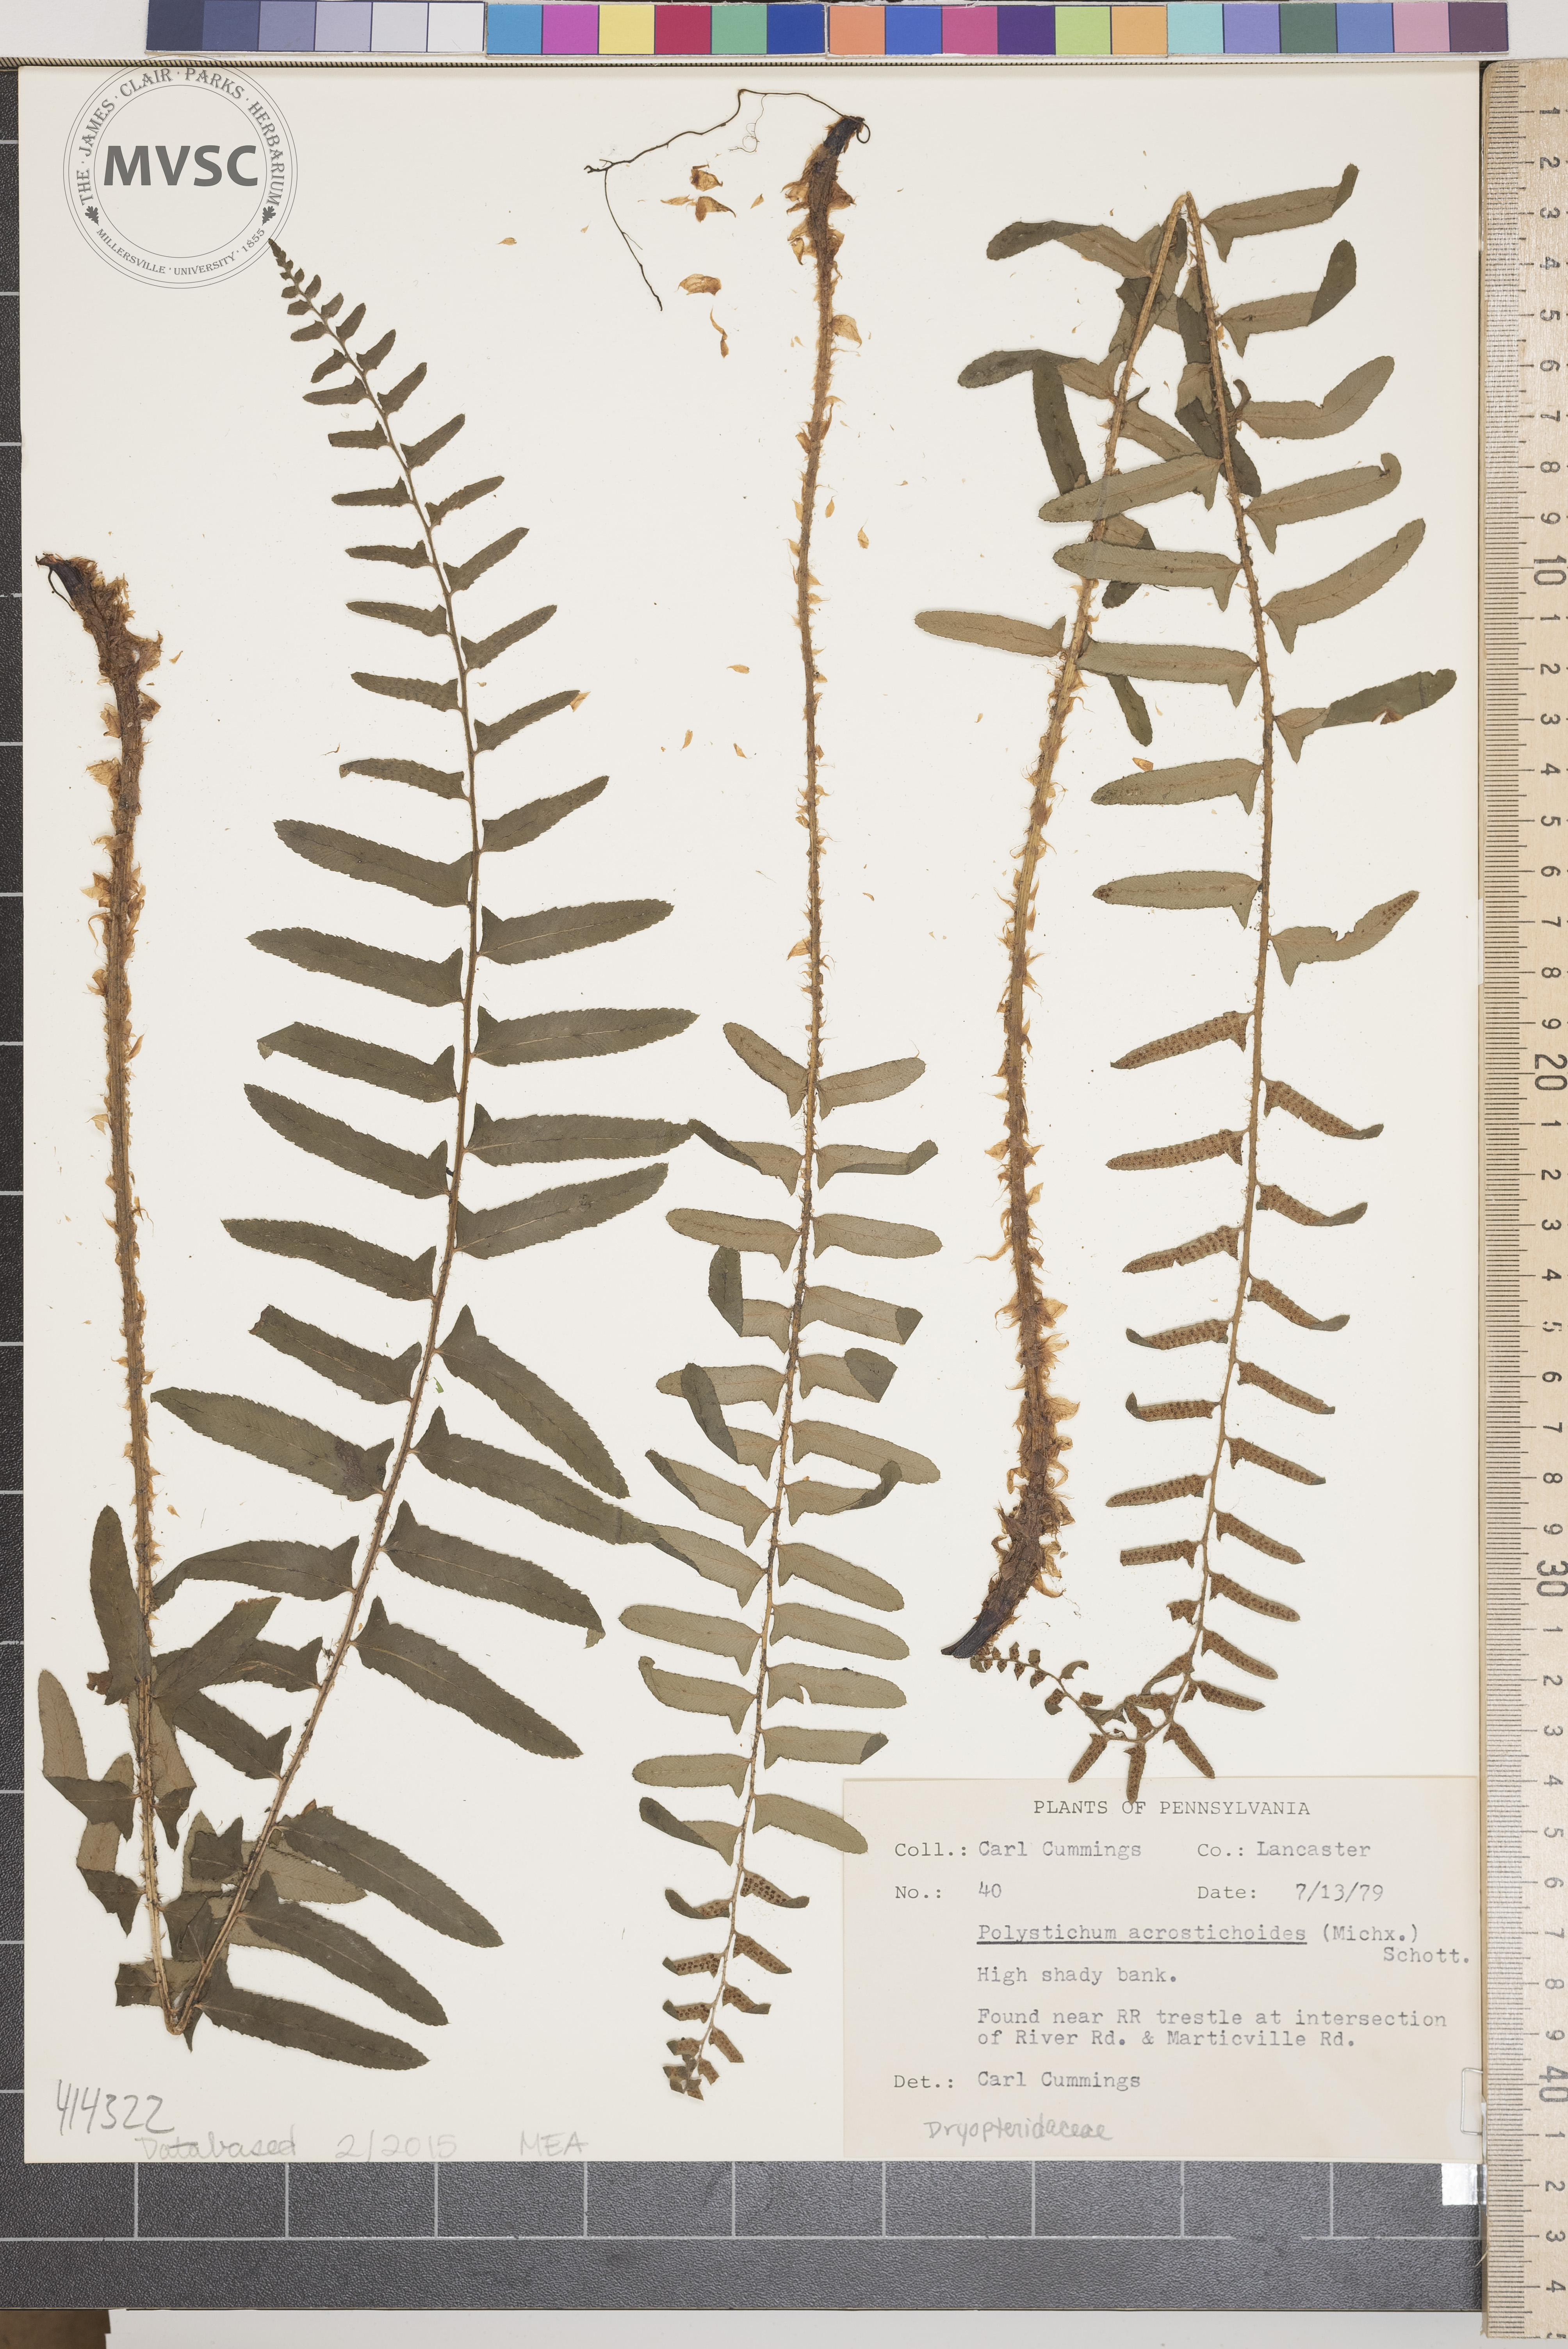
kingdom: Plantae
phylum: Tracheophyta
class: Polypodiopsida
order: Polypodiales
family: Dryopteridaceae
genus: Polystichum
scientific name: Polystichum acrostichoides
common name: Christmas Fern
